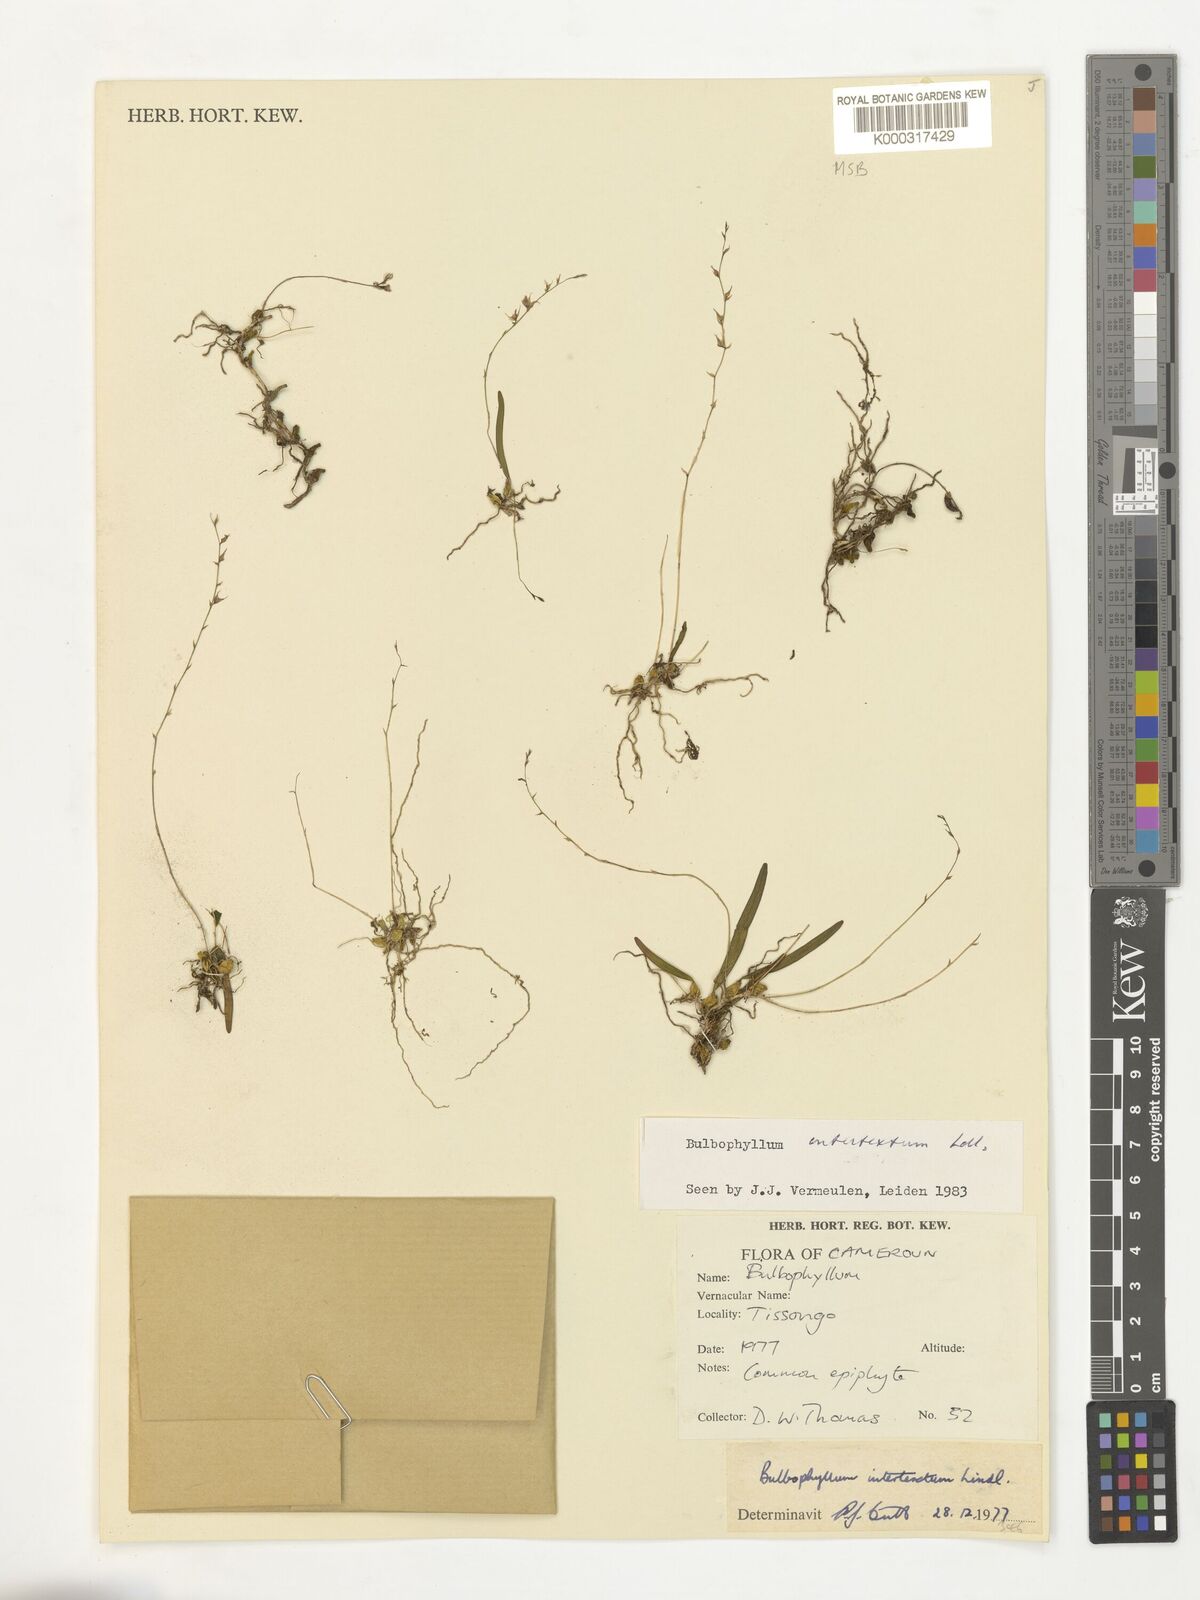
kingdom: Plantae
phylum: Tracheophyta
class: Liliopsida
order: Asparagales
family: Orchidaceae
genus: Bulbophyllum
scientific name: Bulbophyllum intertextum
